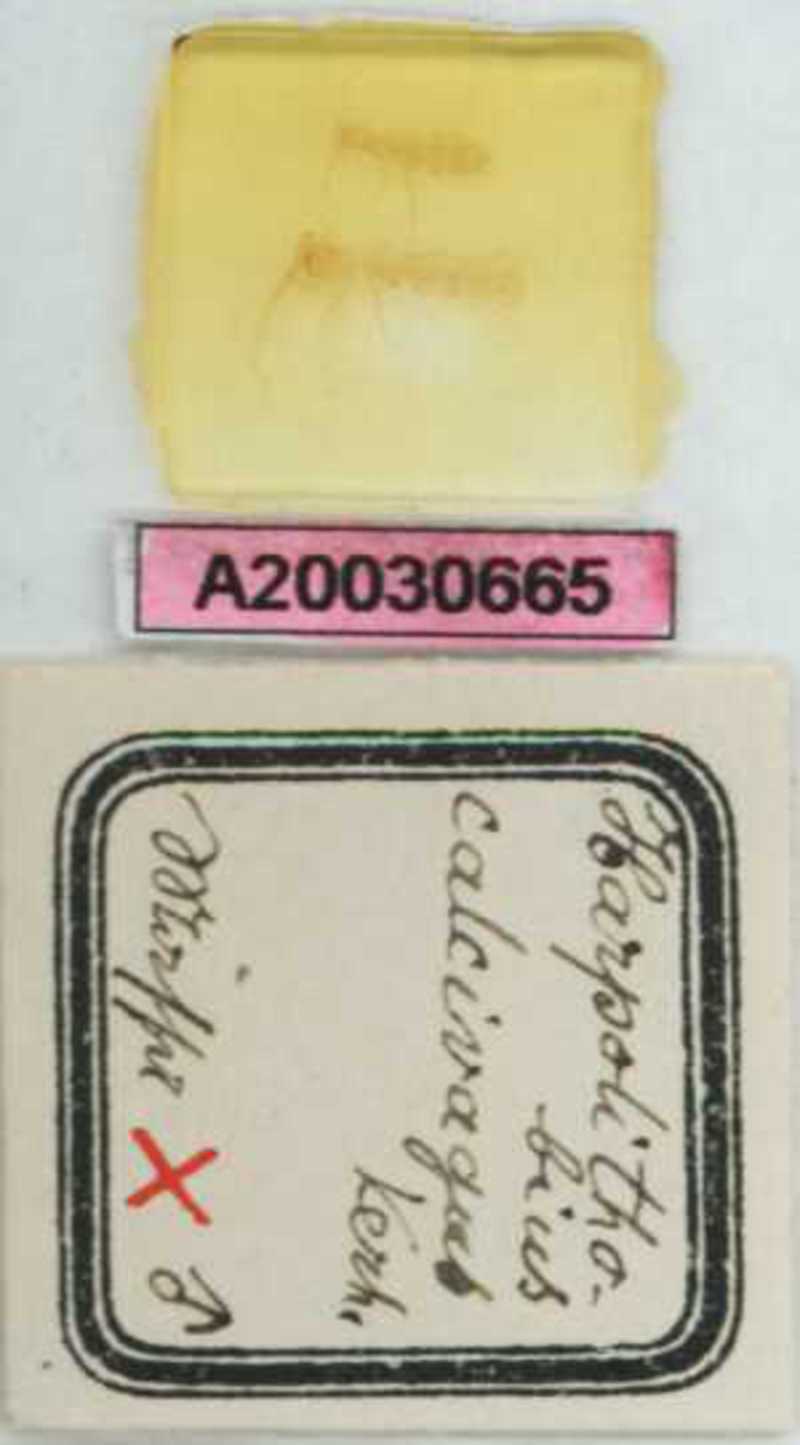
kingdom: Animalia
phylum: Arthropoda
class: Chilopoda
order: Lithobiomorpha
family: Lithobiidae
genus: Harpolithobius
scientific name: Harpolithobius anodus
